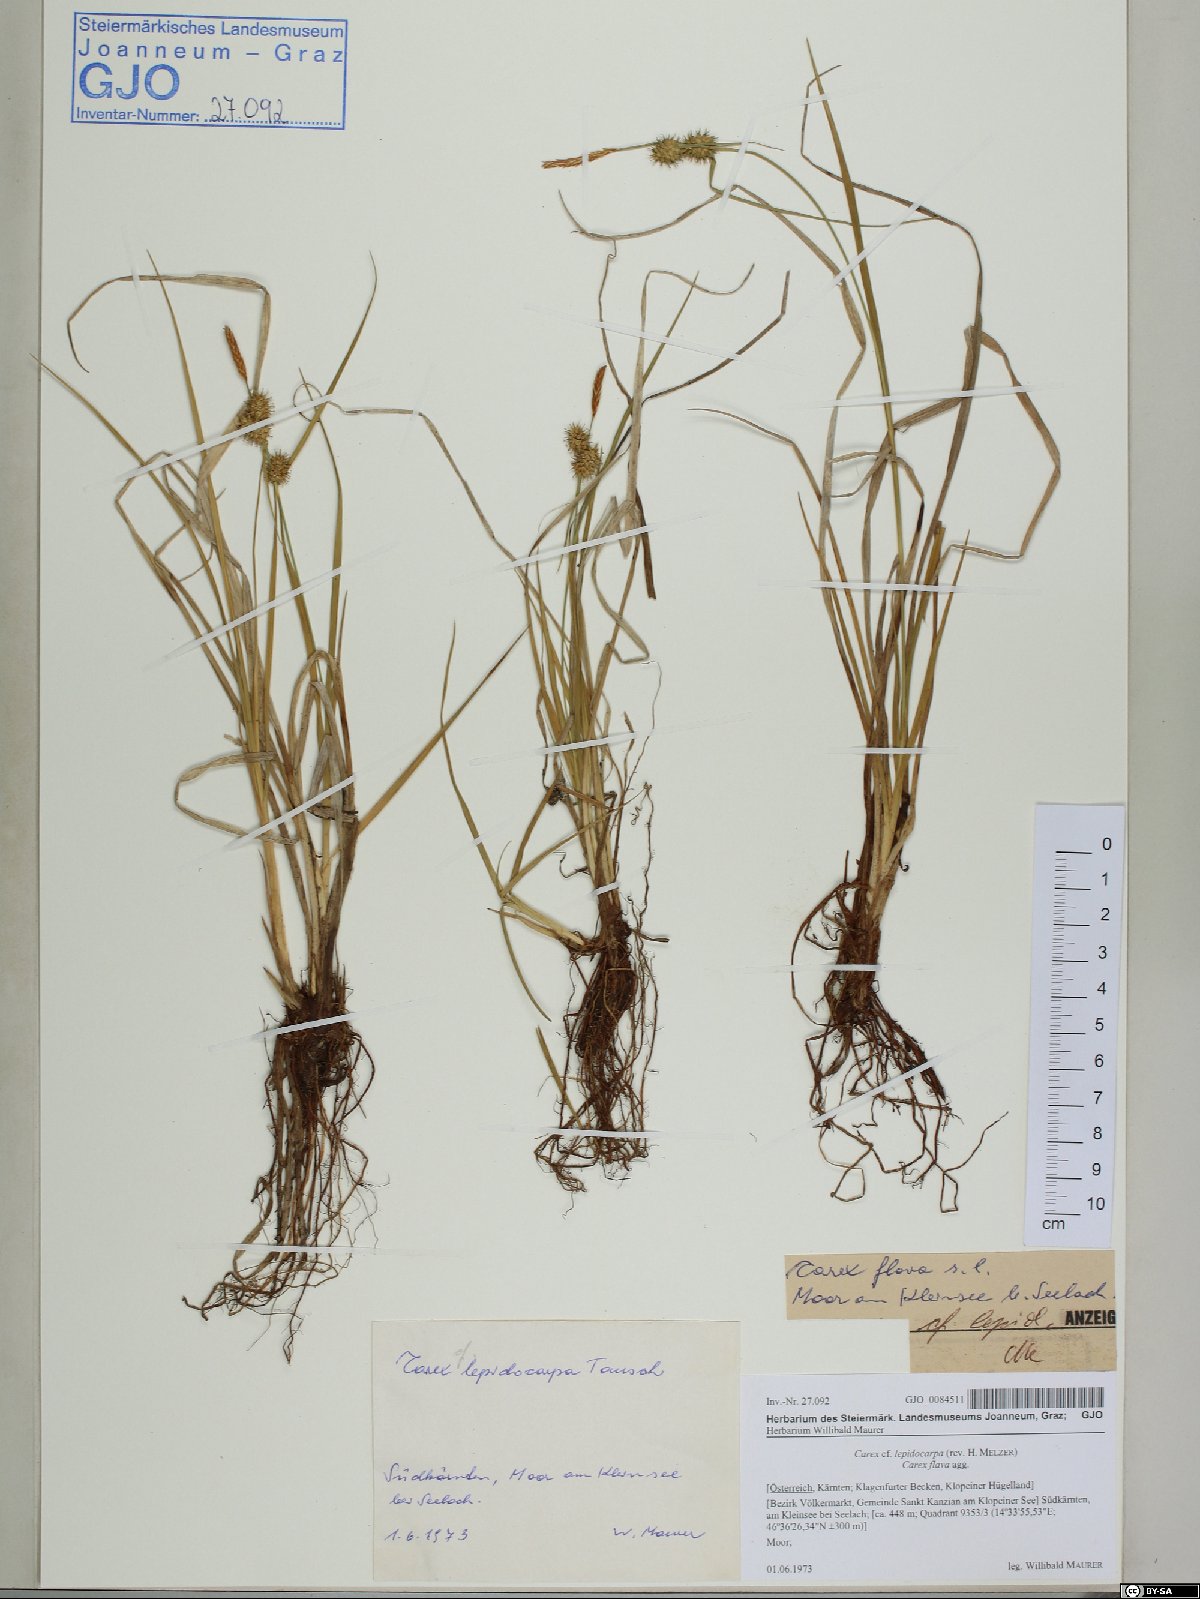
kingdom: Plantae
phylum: Tracheophyta
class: Liliopsida
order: Poales
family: Cyperaceae
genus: Carex
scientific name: Carex lepidocarpa
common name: Long-stalked yellow-sedge
